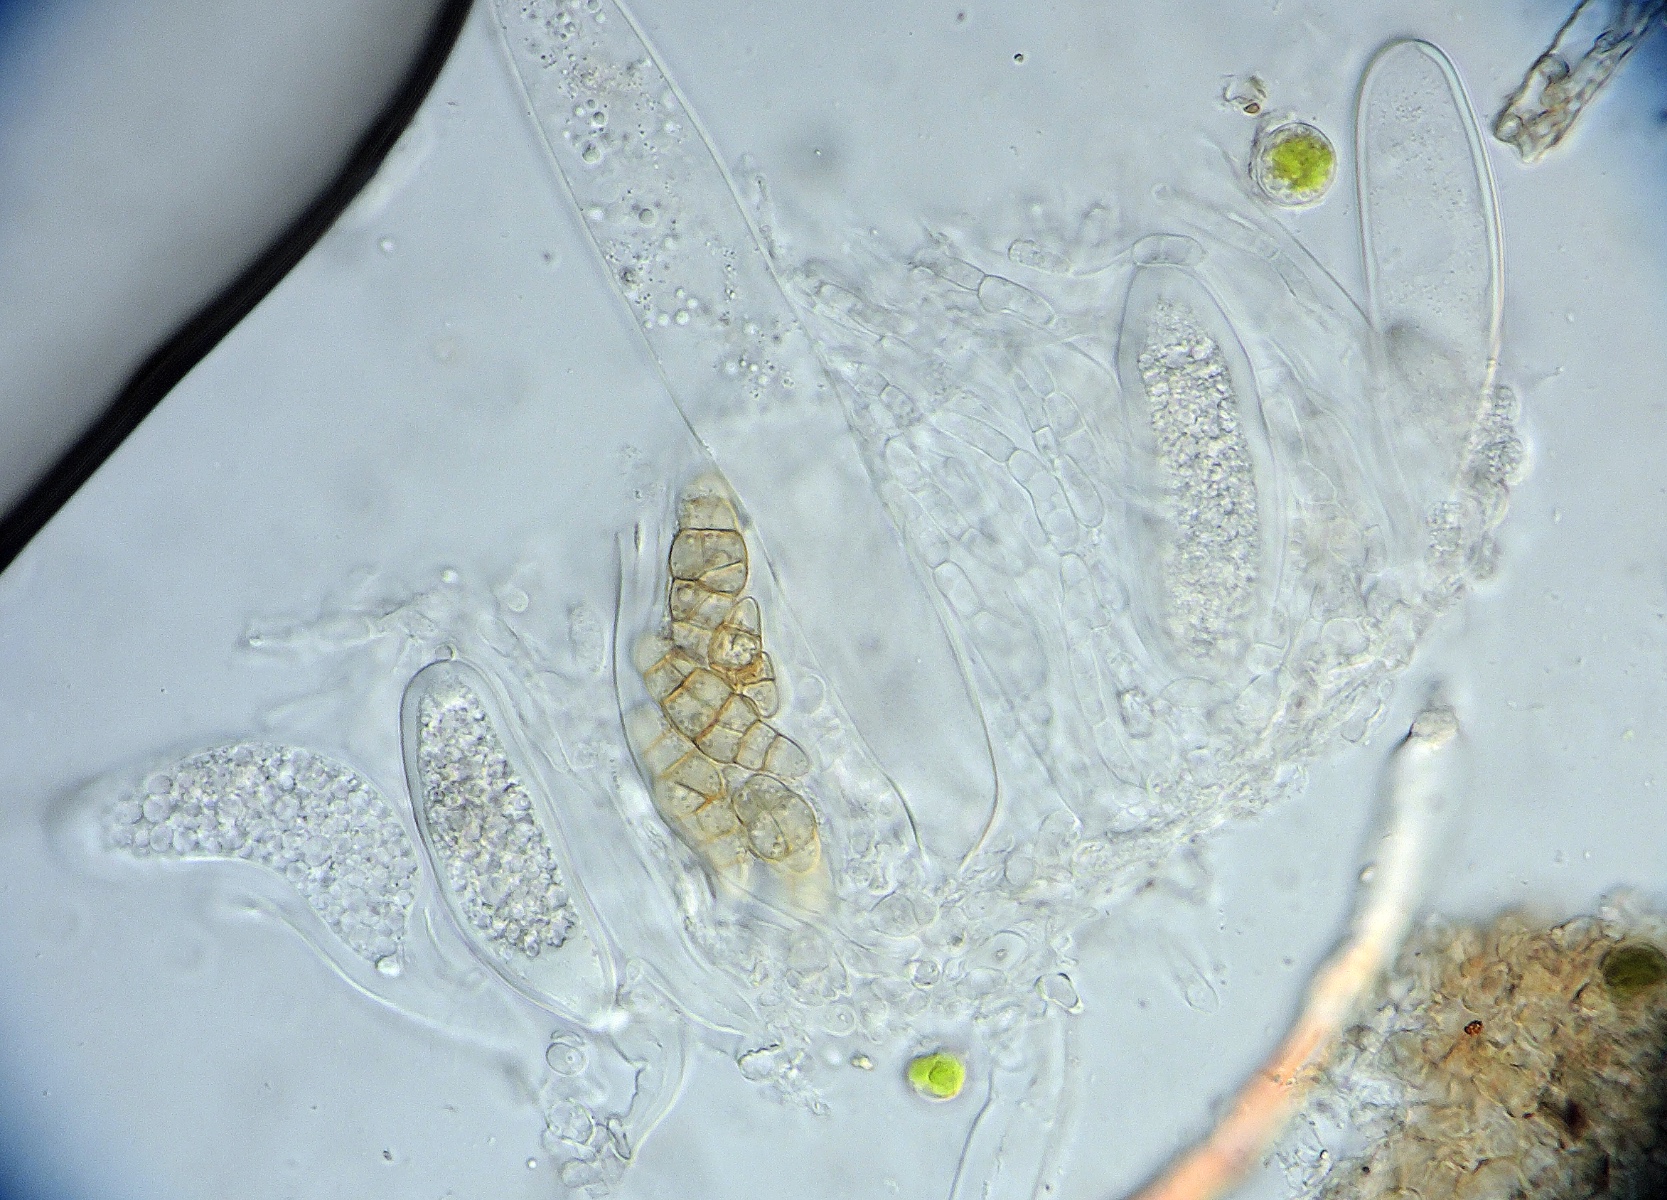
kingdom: Fungi
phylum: Ascomycota
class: Dothideomycetes
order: Pleosporales
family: Pleosporaceae
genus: Alternaria
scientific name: Alternaria infectoria
